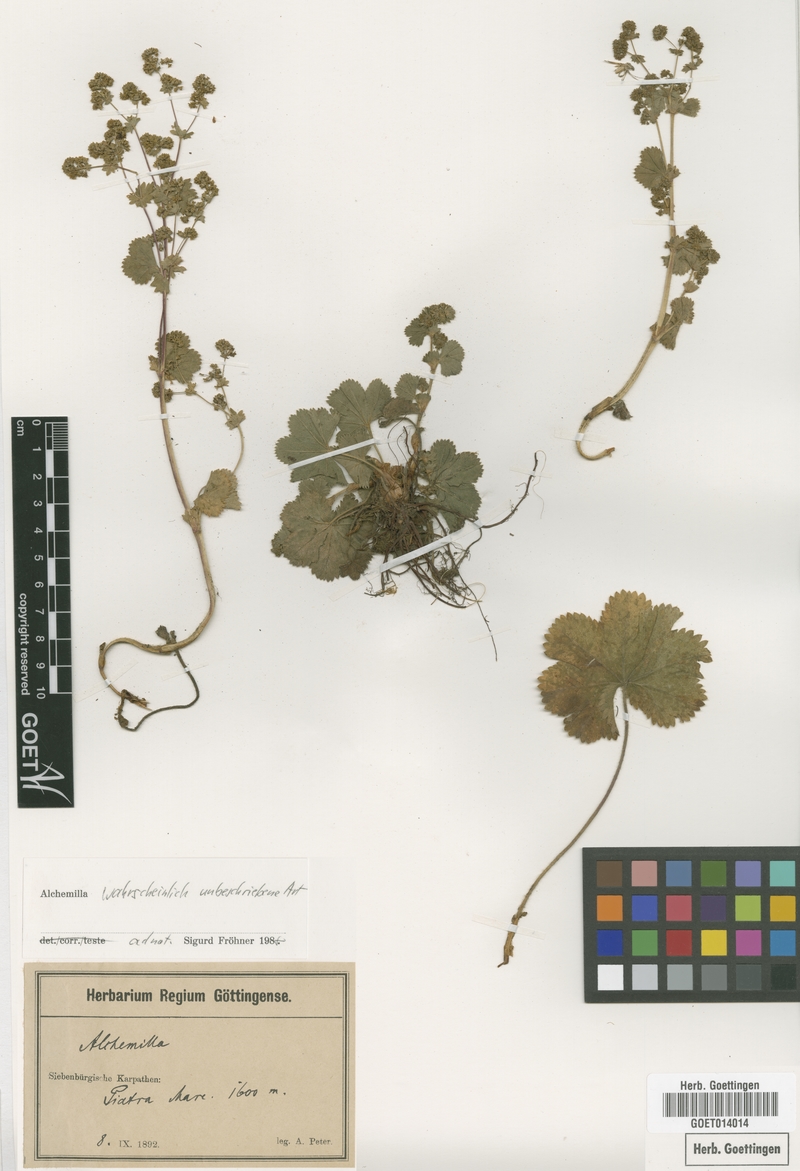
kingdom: Plantae
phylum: Tracheophyta
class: Magnoliopsida
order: Rosales
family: Rosaceae
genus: Alchemilla
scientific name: Alchemilla
